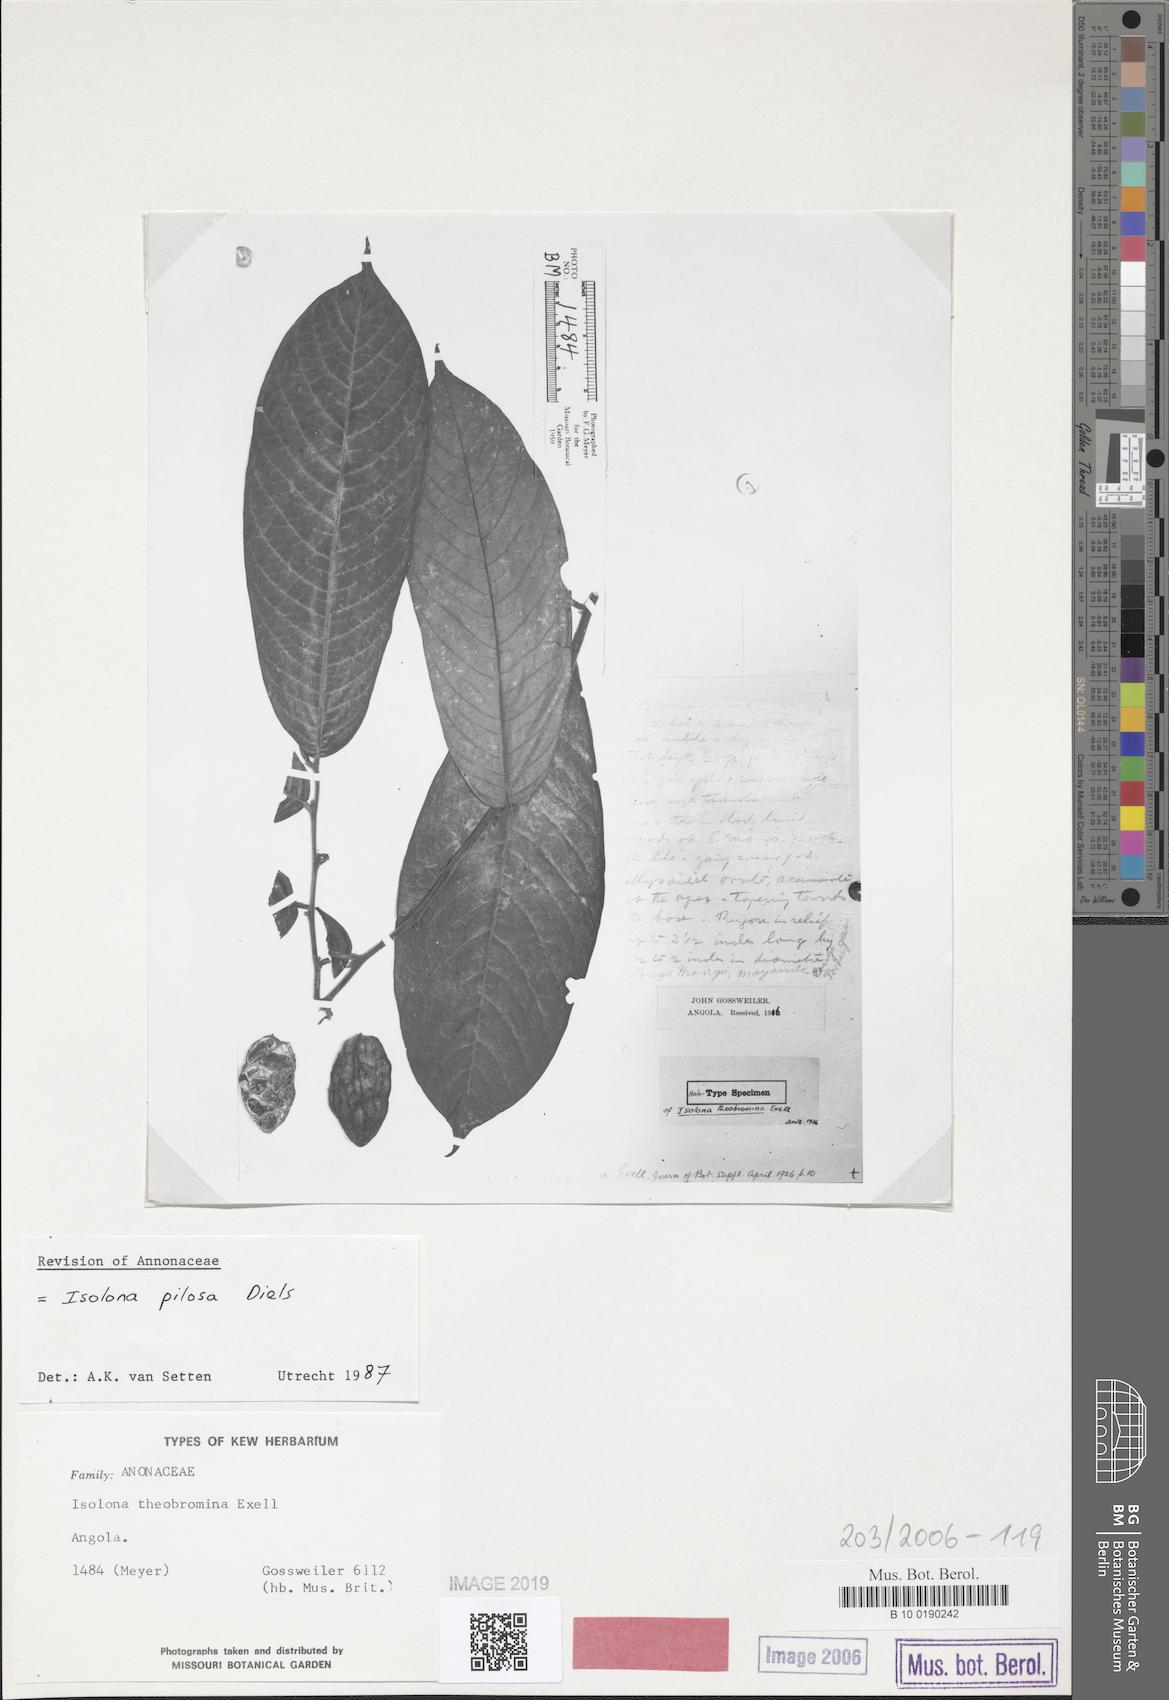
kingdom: Plantae
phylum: Tracheophyta
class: Magnoliopsida
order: Magnoliales
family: Annonaceae
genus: Isolona
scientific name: Isolona pilosa
